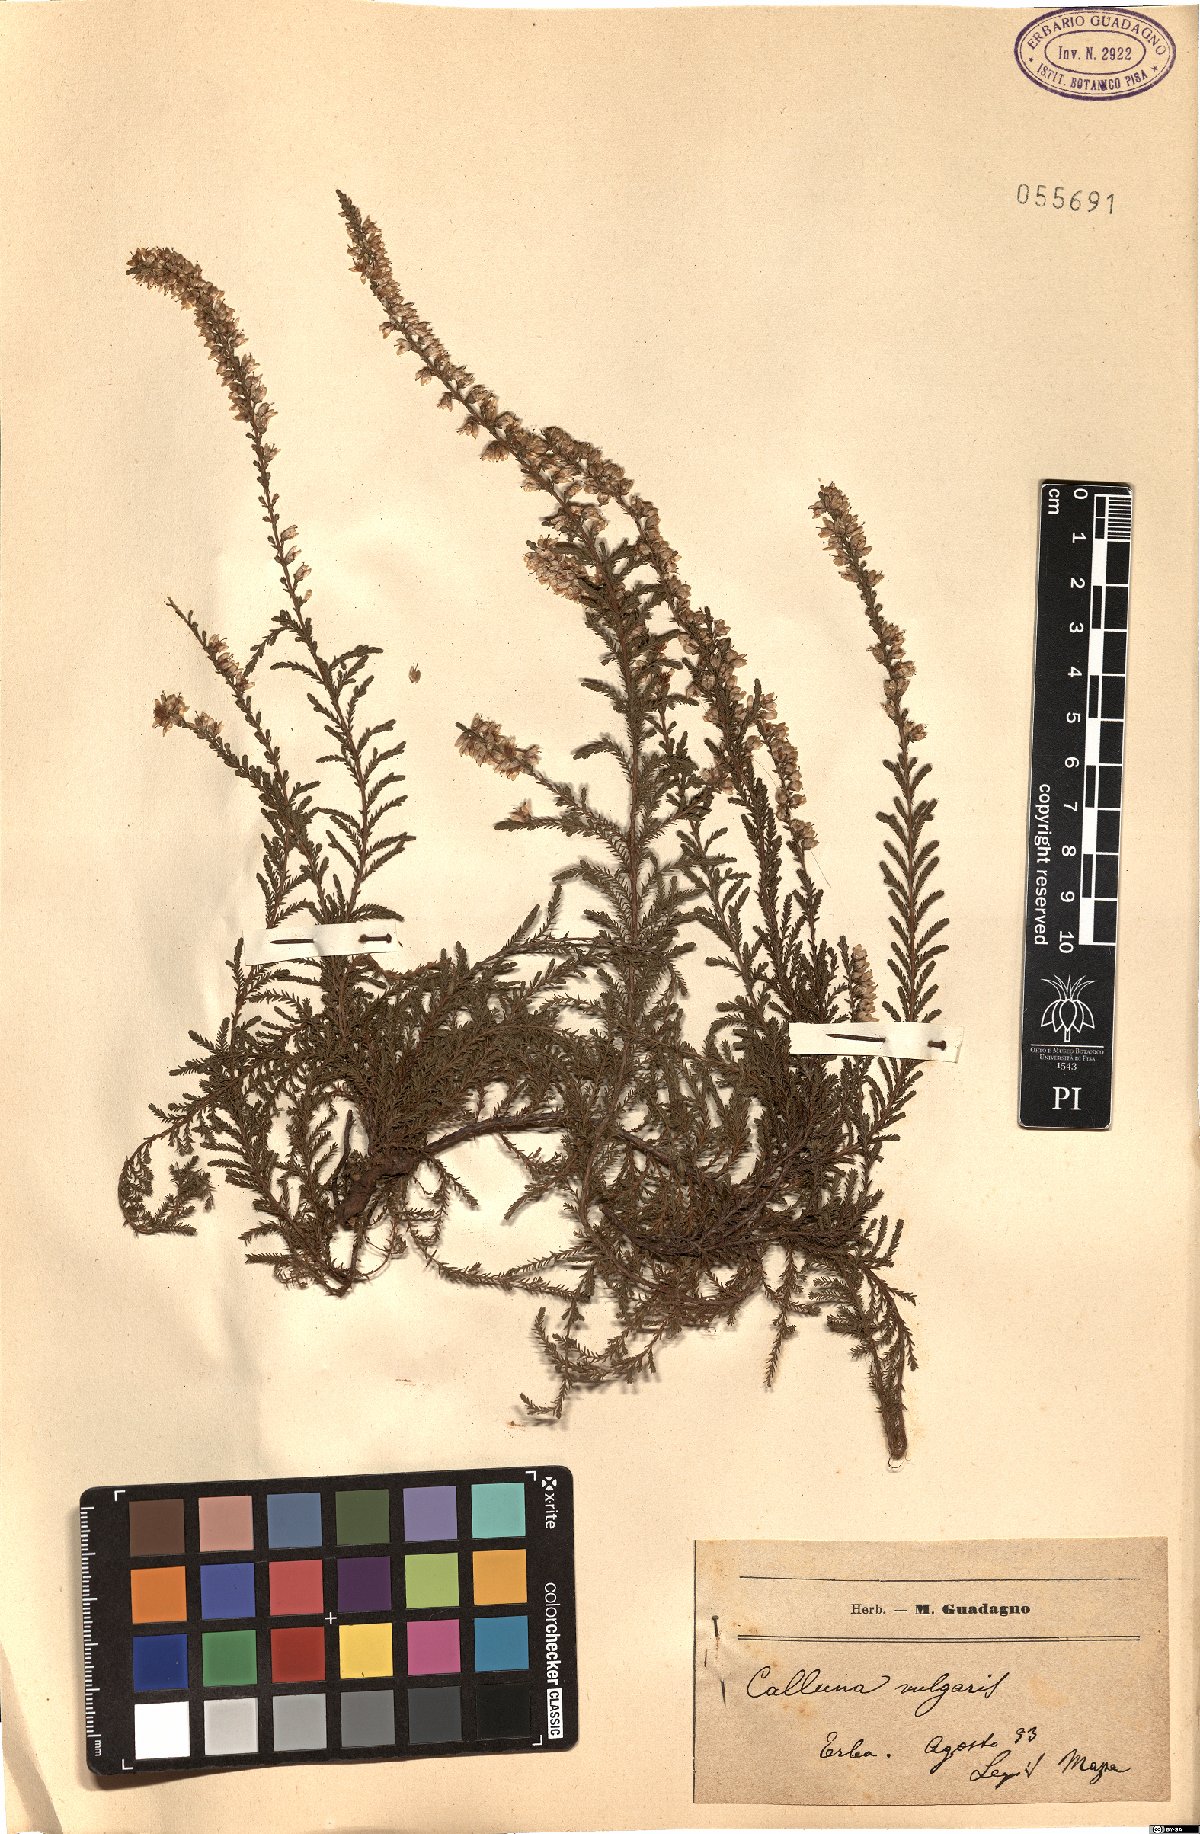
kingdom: Plantae
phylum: Tracheophyta
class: Magnoliopsida
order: Ericales
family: Ericaceae
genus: Calluna
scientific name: Calluna vulgaris
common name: Heather
